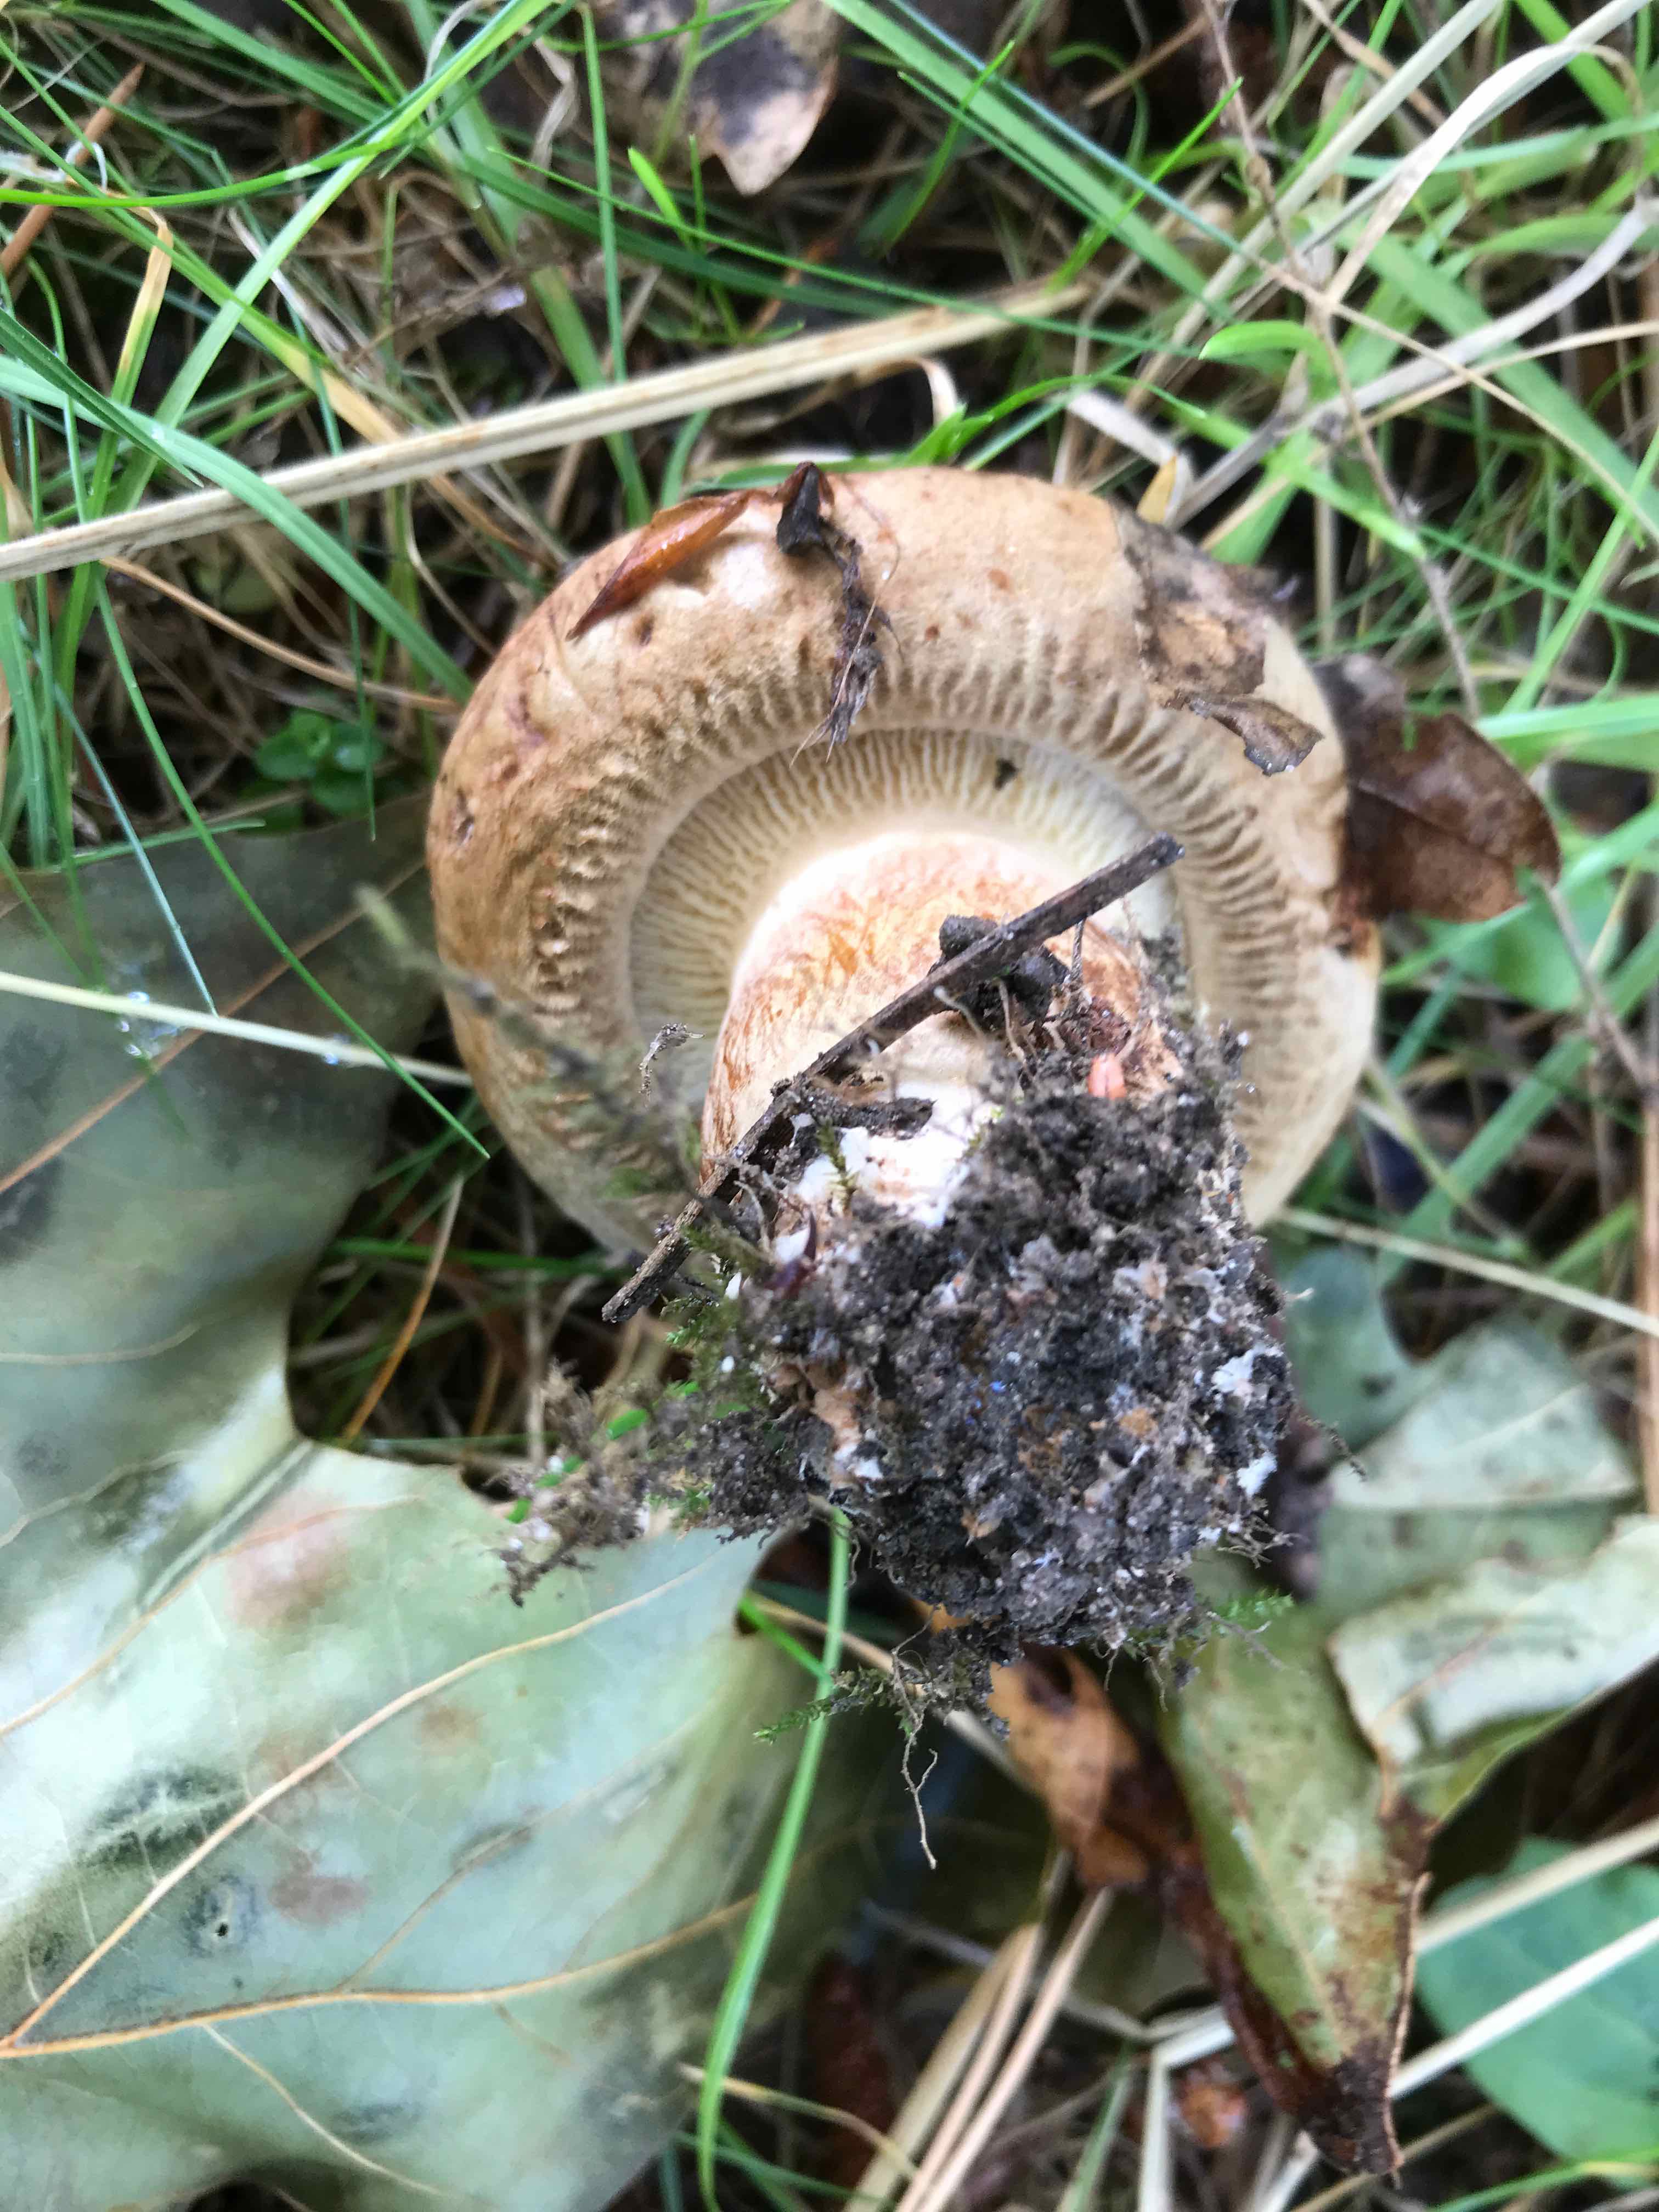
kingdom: Fungi
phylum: Basidiomycota
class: Agaricomycetes
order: Boletales
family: Paxillaceae
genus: Paxillus
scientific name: Paxillus
